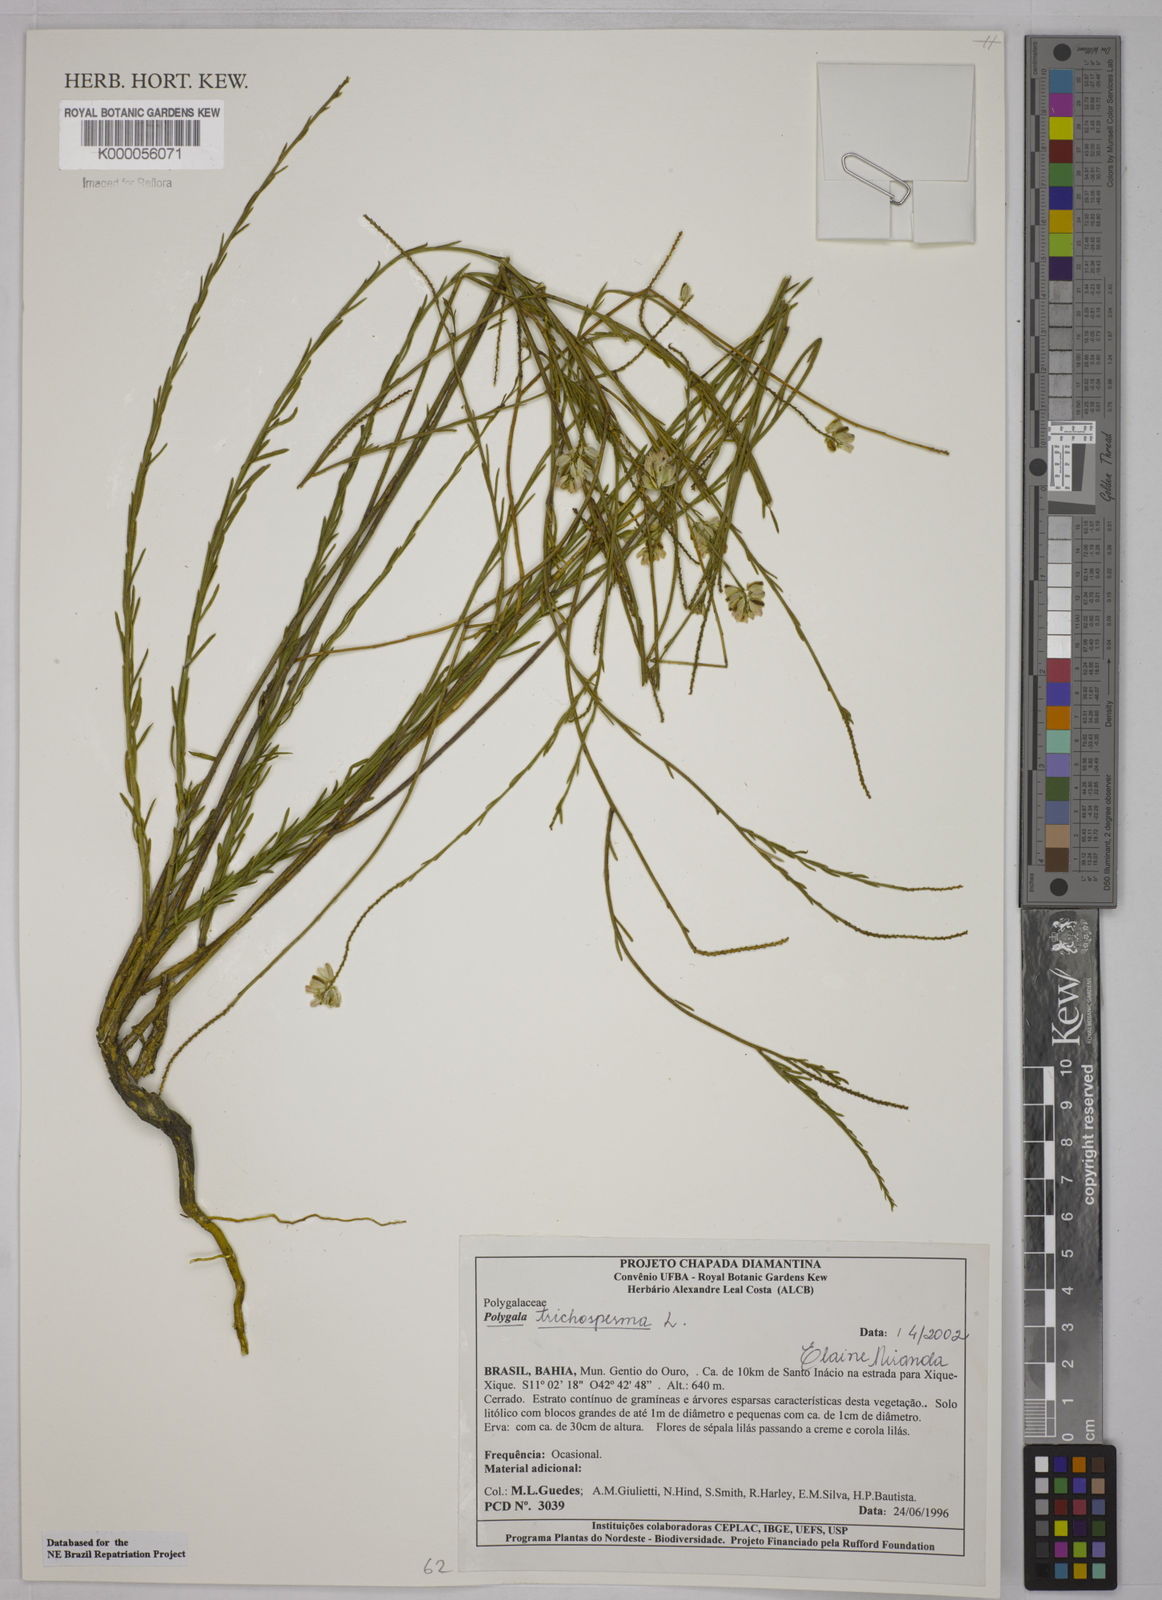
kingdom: Plantae
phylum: Tracheophyta
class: Magnoliopsida
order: Fabales
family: Polygalaceae
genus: Polygala
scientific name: Polygala
